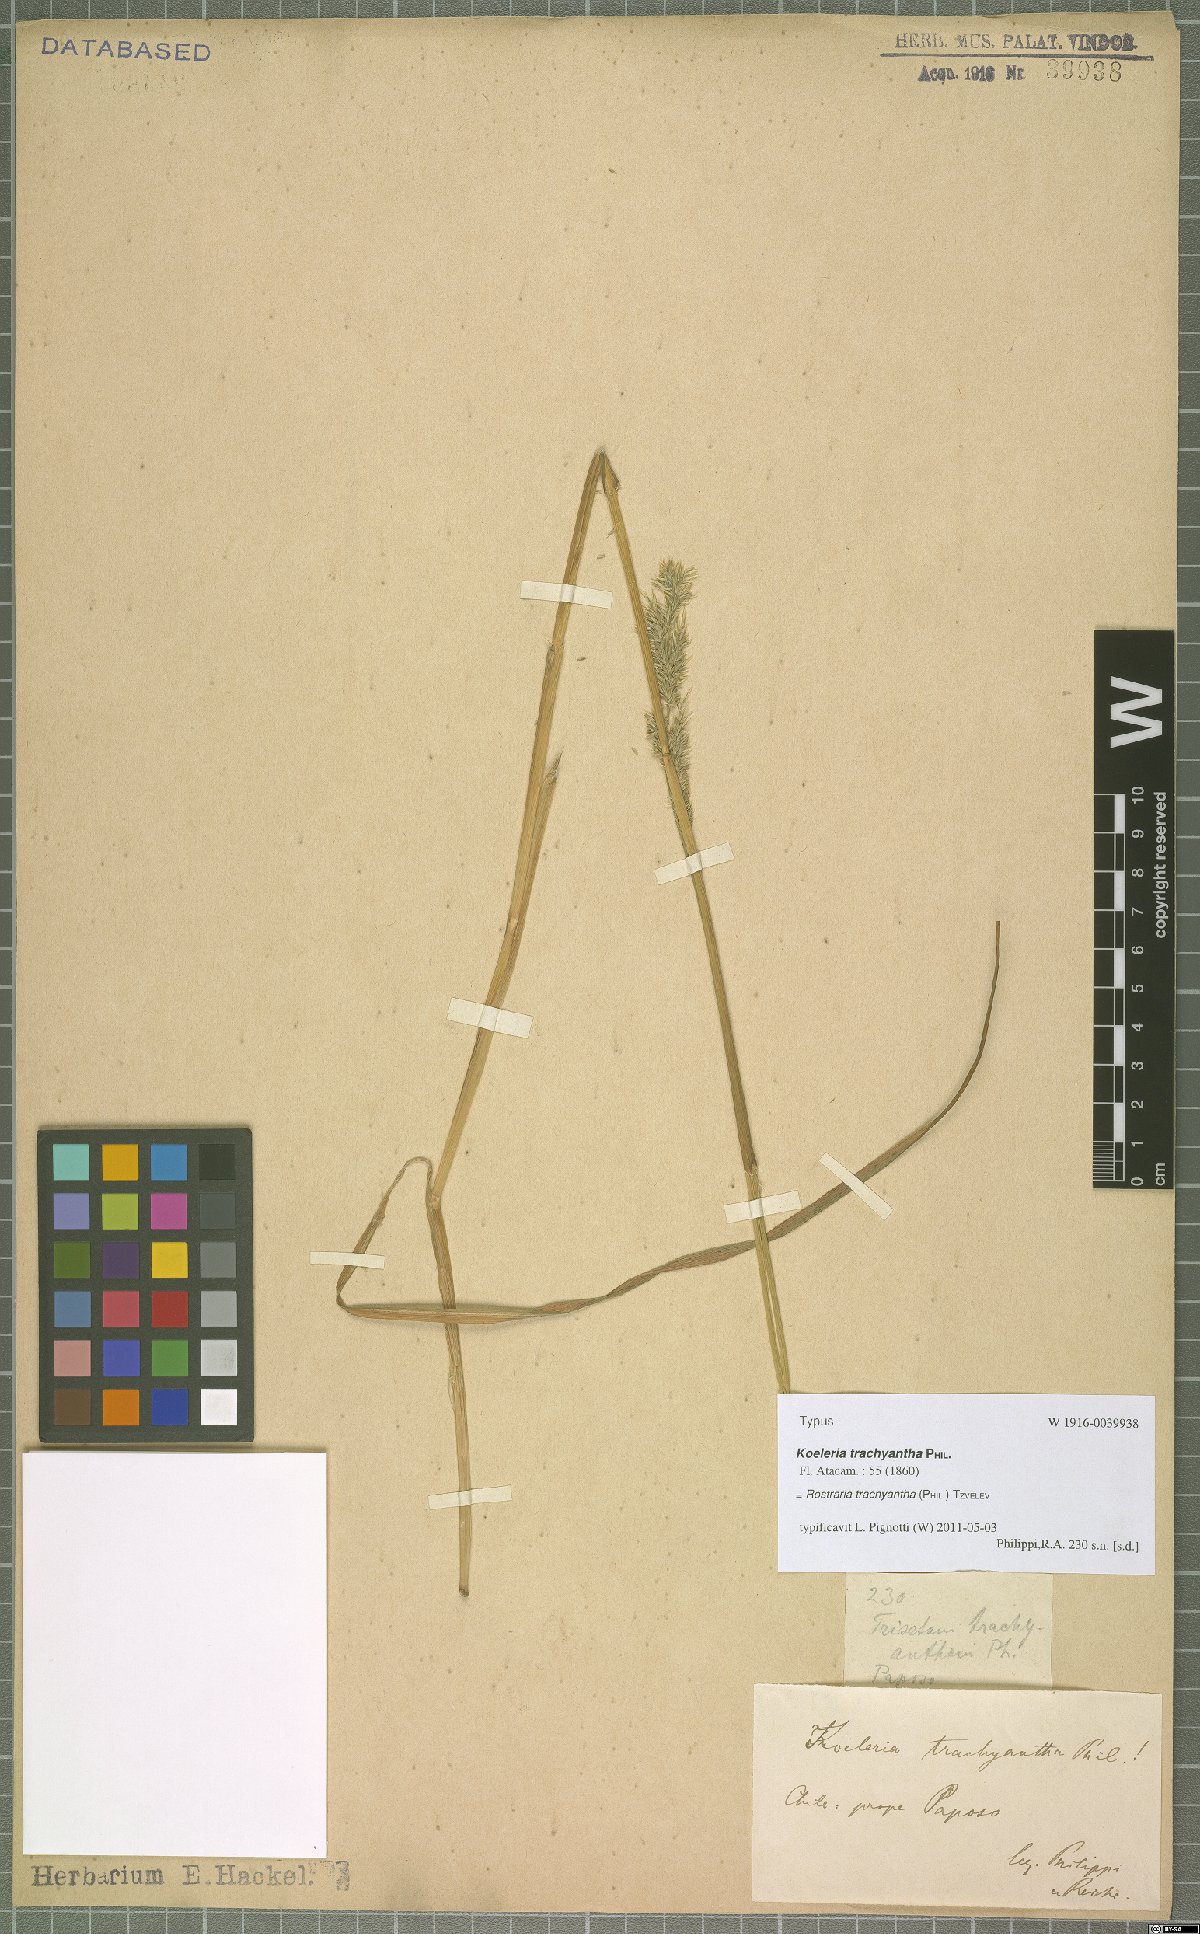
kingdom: Plantae
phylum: Tracheophyta
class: Liliopsida
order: Poales
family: Poaceae
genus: Rostraria
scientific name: Rostraria trachyantha
